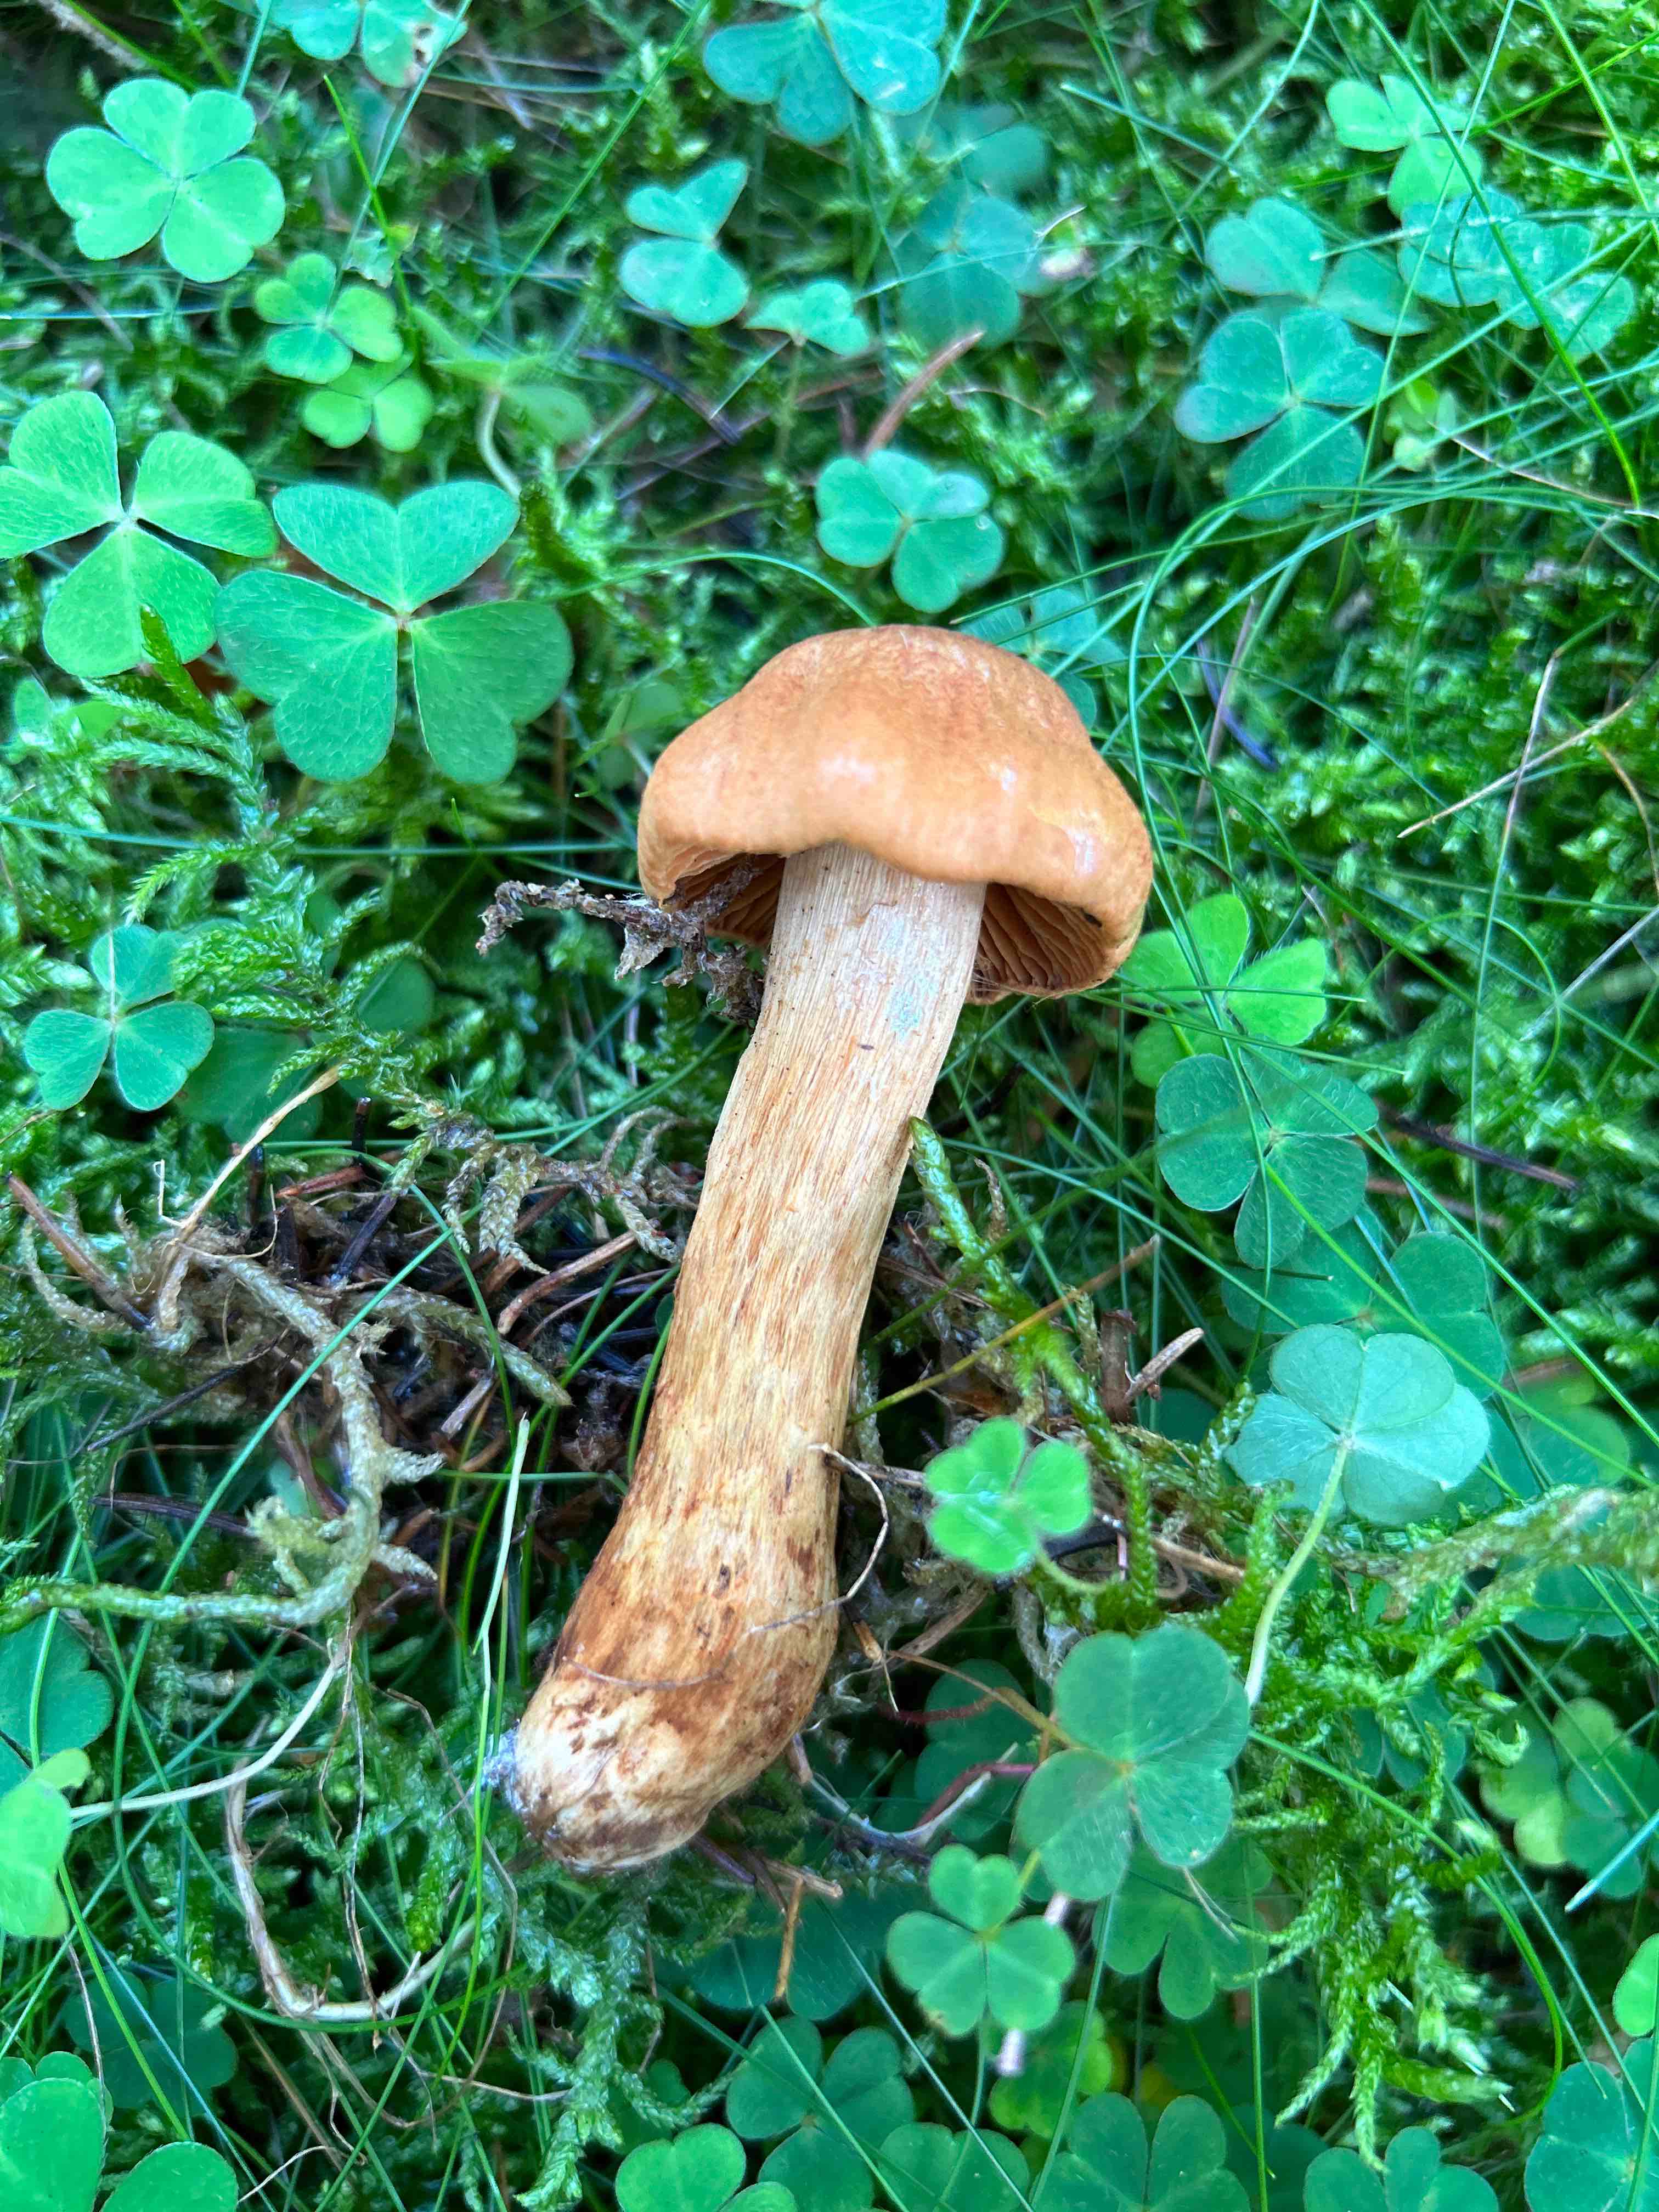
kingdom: Fungi
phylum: Basidiomycota
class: Agaricomycetes
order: Agaricales
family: Cortinariaceae
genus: Cortinarius
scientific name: Cortinarius rubellus
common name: puklet gift-slørhat
